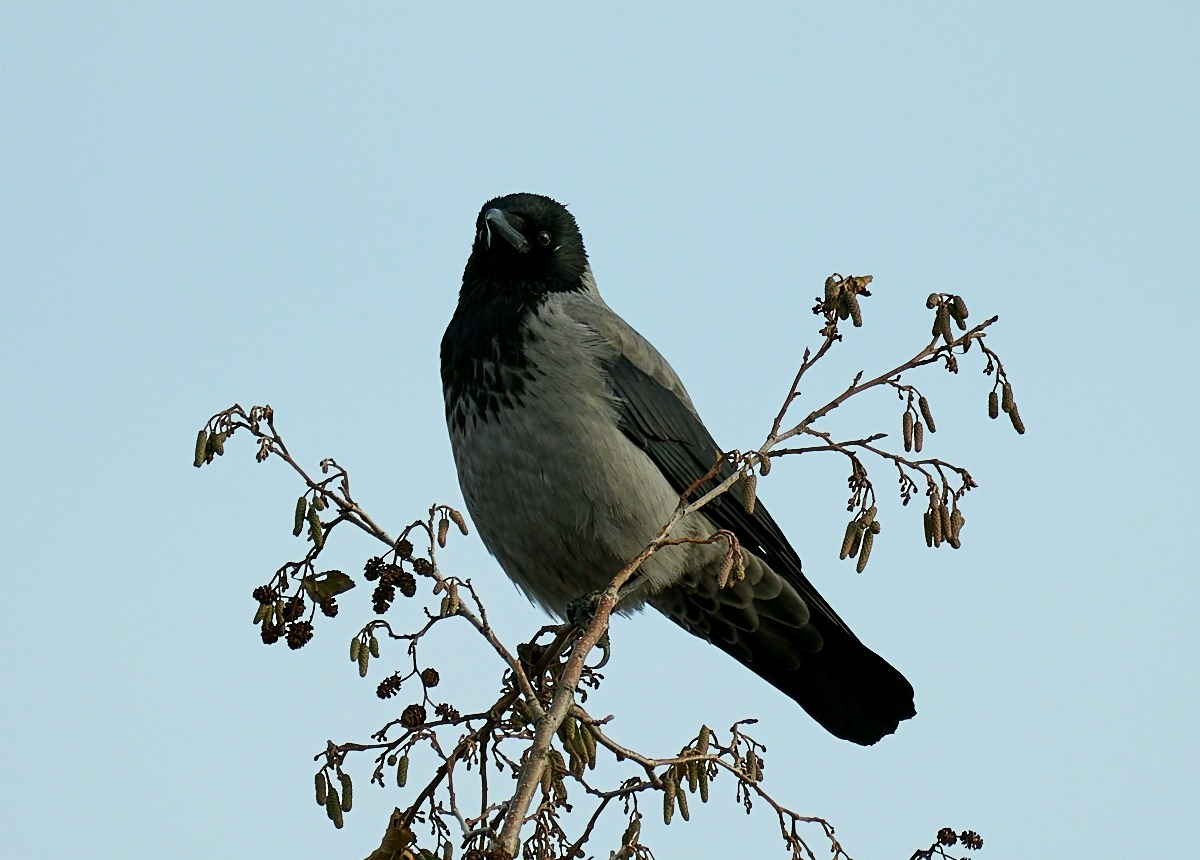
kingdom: Animalia
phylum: Chordata
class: Aves
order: Passeriformes
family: Corvidae
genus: Corvus
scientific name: Corvus cornix
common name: Gråkrage
